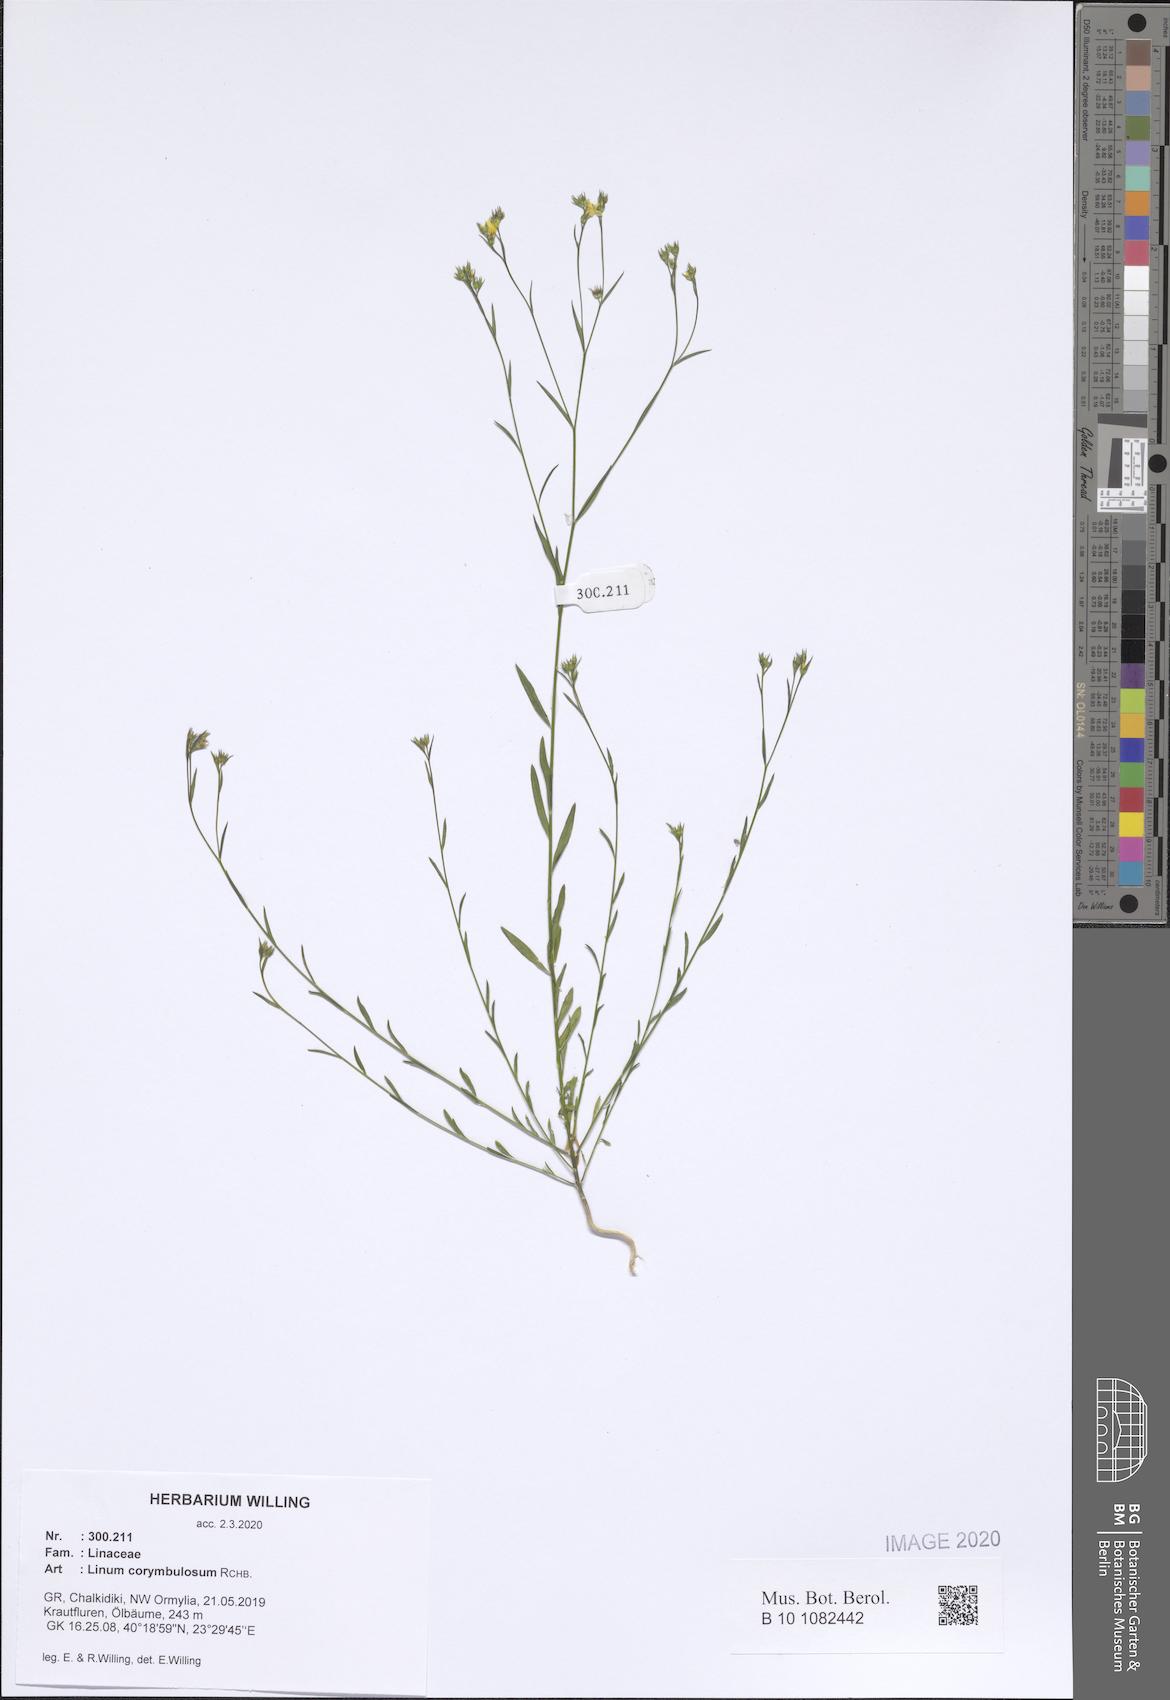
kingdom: Plantae
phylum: Tracheophyta
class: Magnoliopsida
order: Malpighiales
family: Linaceae
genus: Linum
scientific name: Linum corymbulosum
